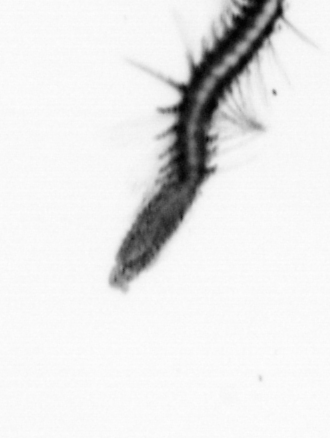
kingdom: Animalia
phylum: Annelida
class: Polychaeta
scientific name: Polychaeta
